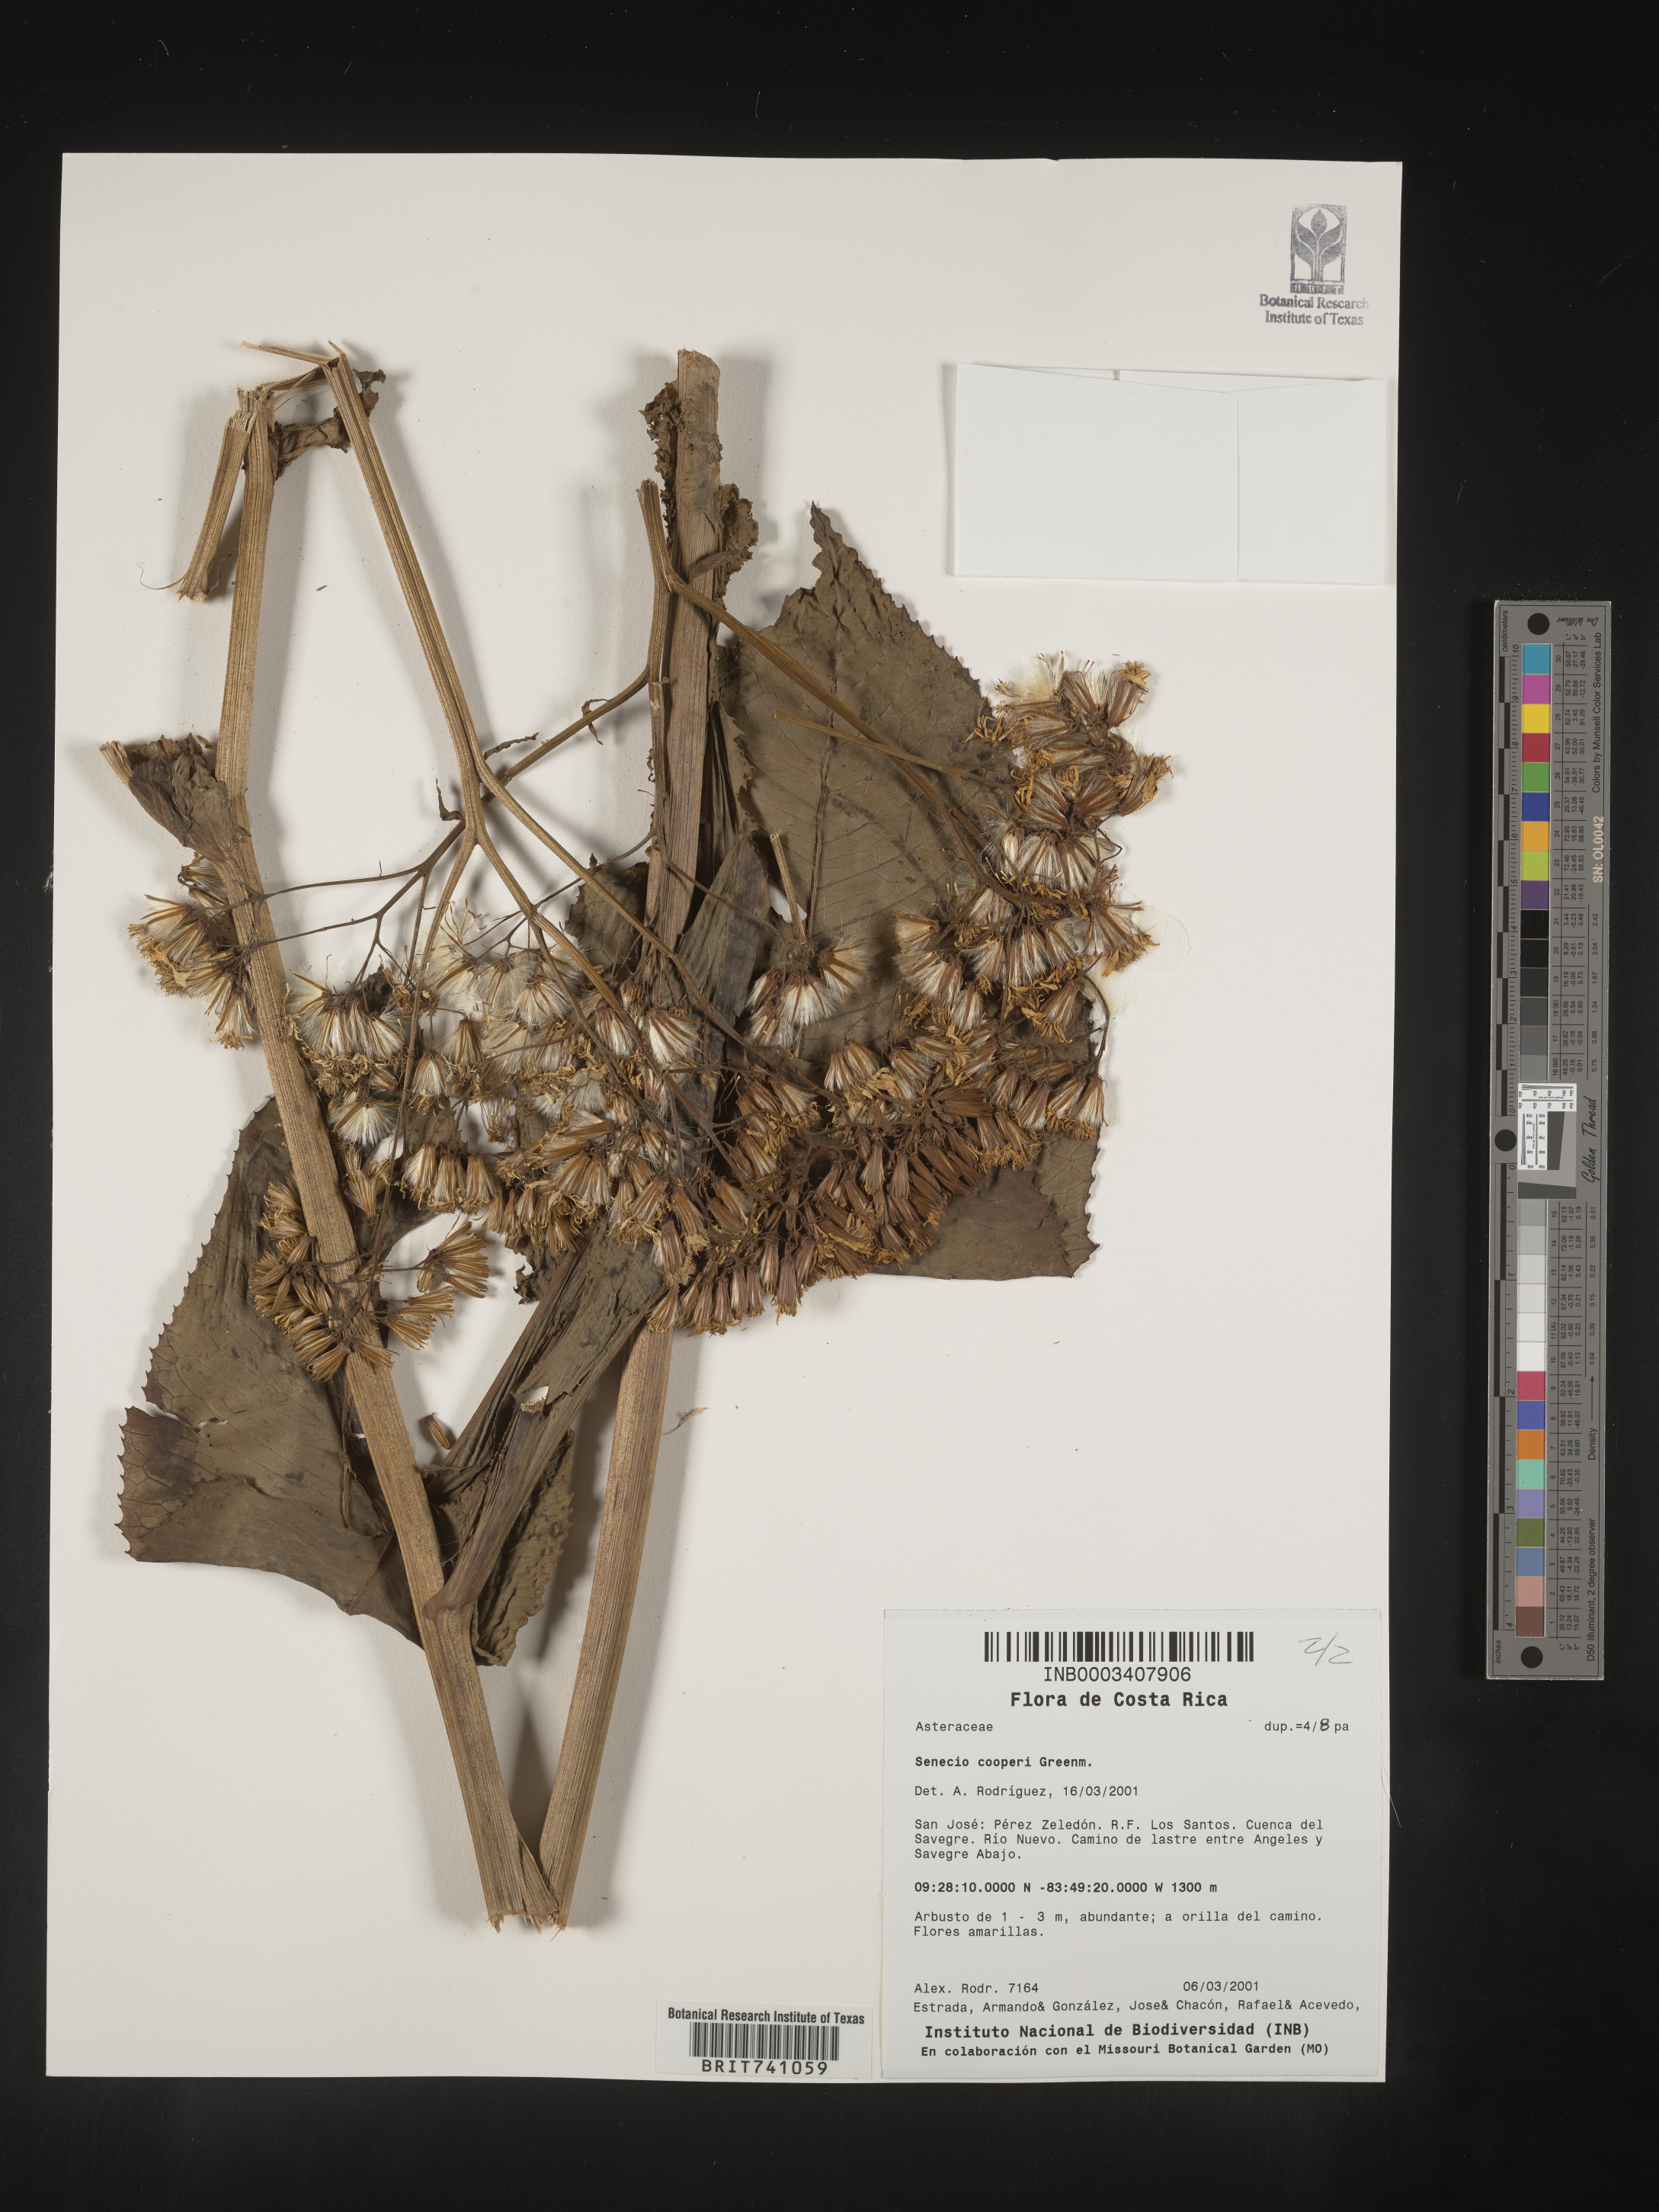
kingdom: Plantae
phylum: Tracheophyta
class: Magnoliopsida
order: Asterales
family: Asteraceae
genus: Senecio
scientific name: Senecio
